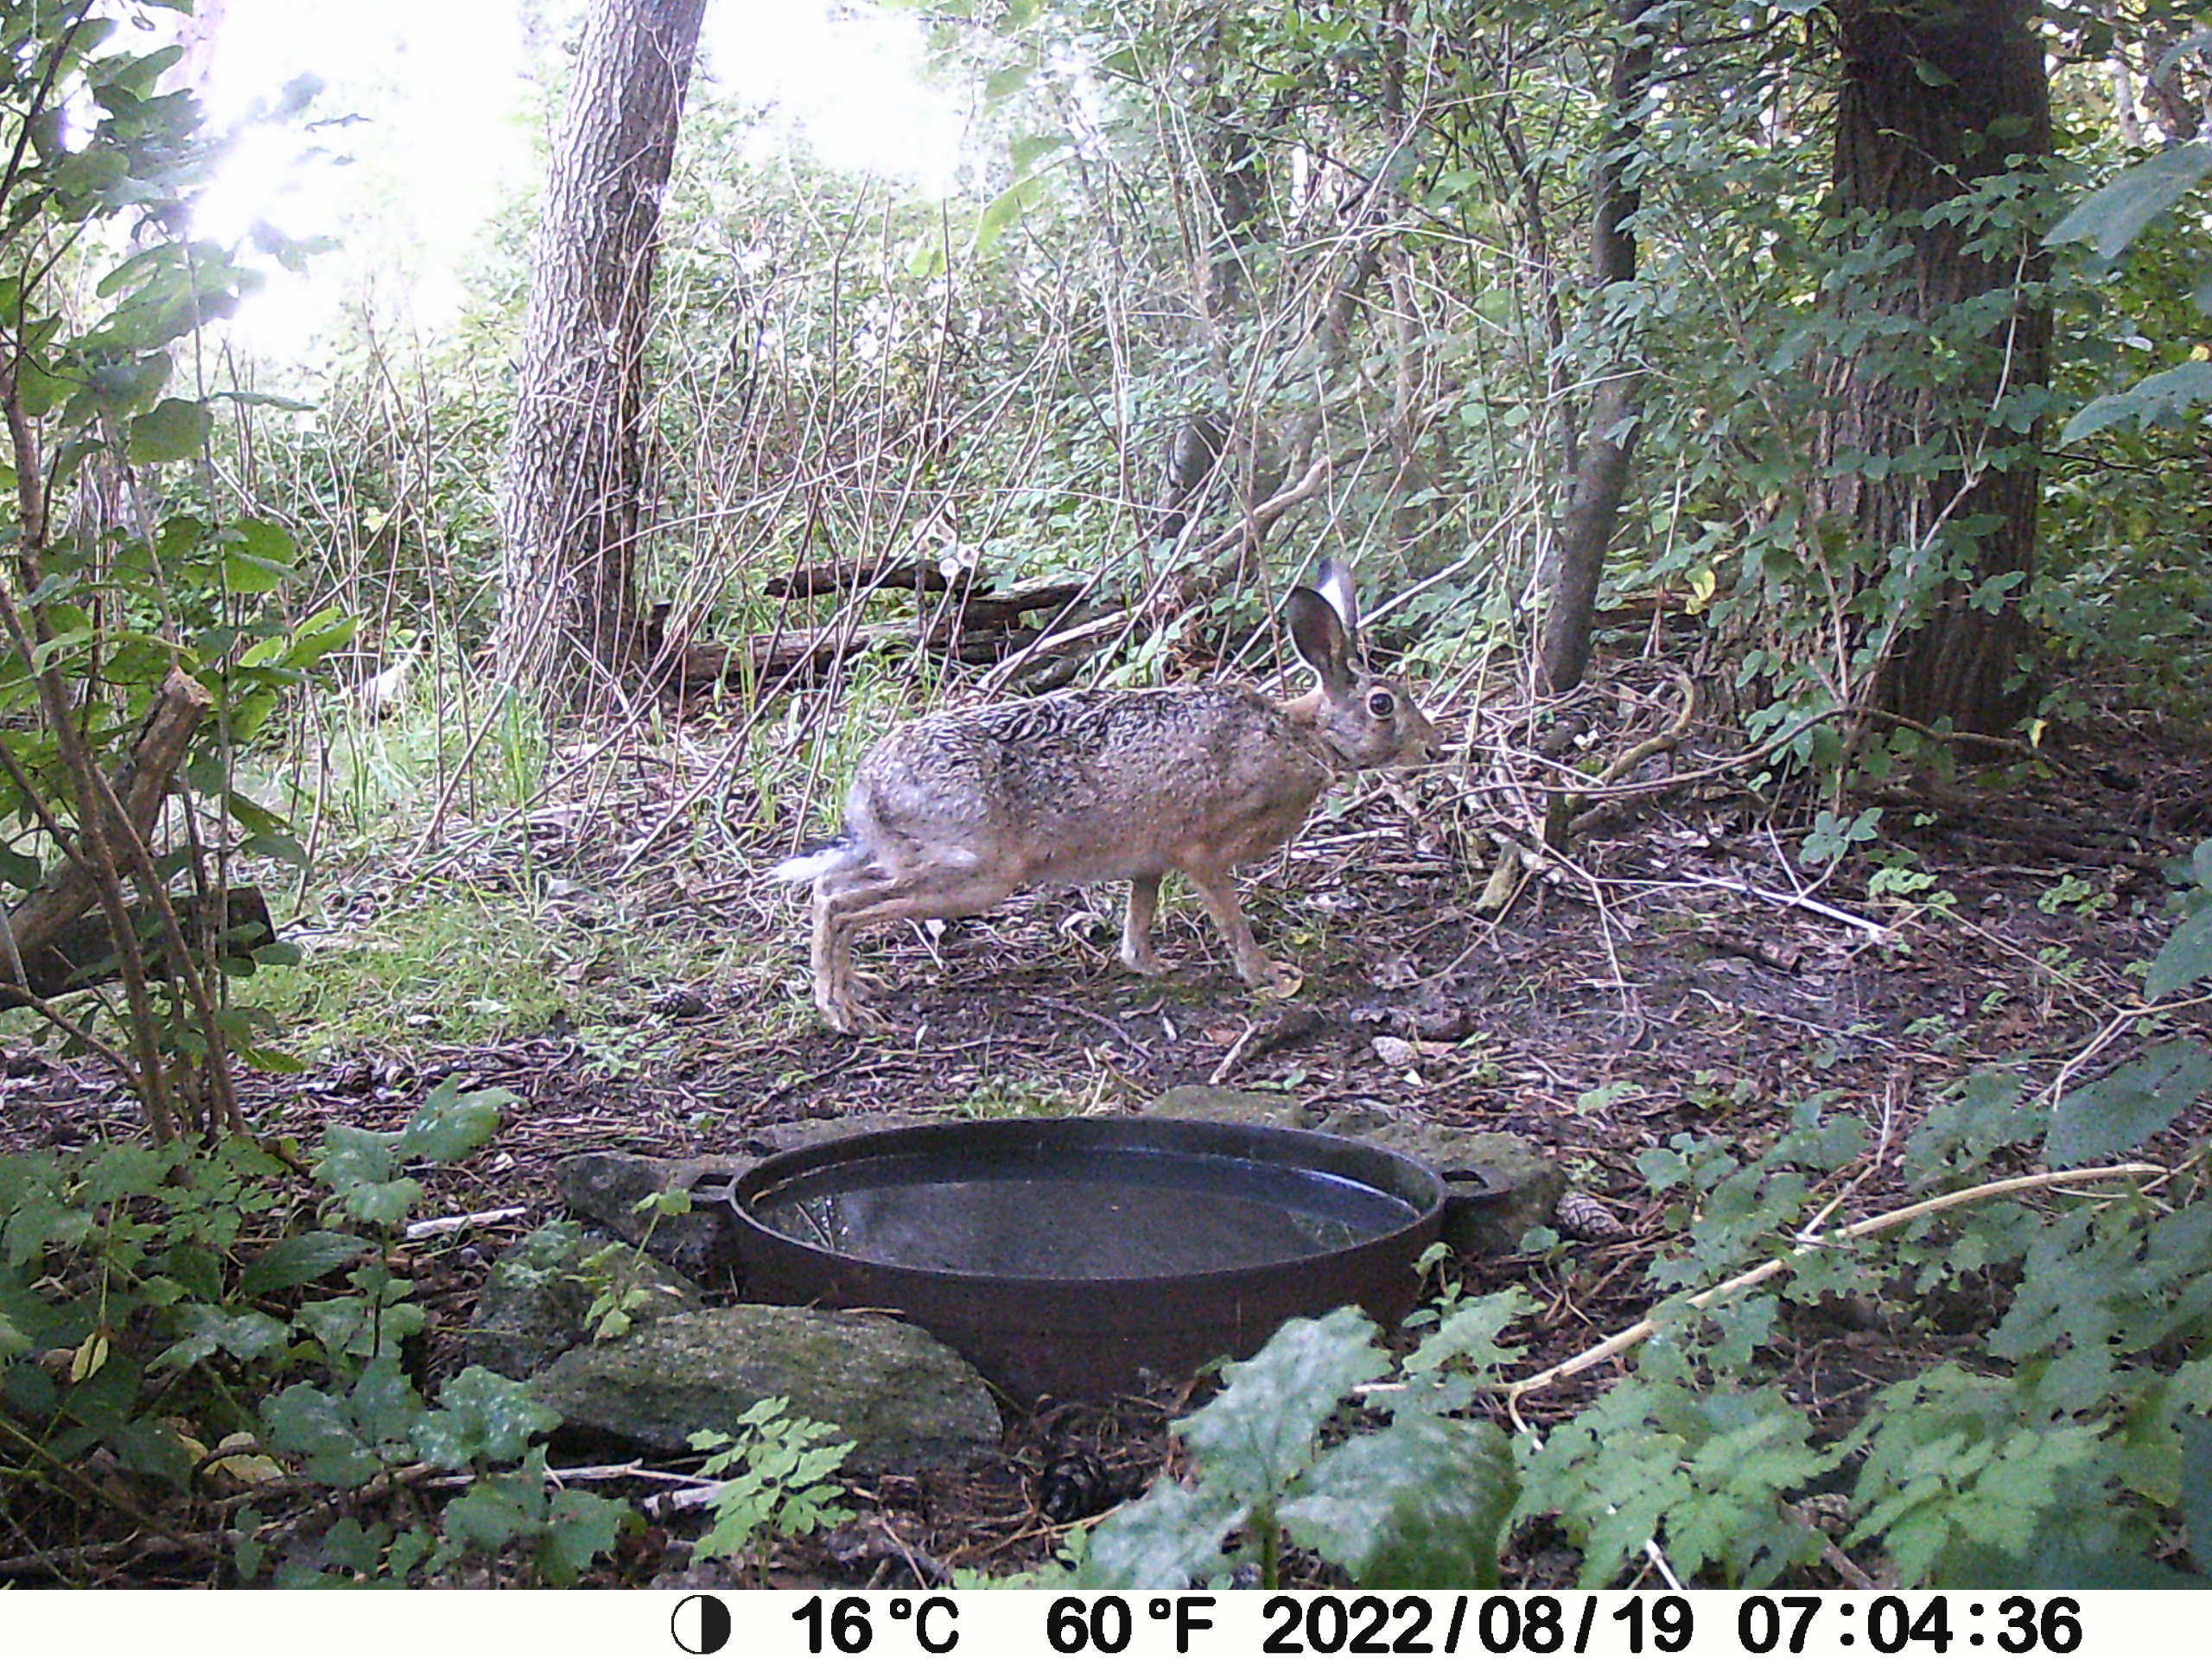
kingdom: Animalia
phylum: Chordata
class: Mammalia
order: Lagomorpha
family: Leporidae
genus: Lepus
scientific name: Lepus europaeus
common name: Hare
